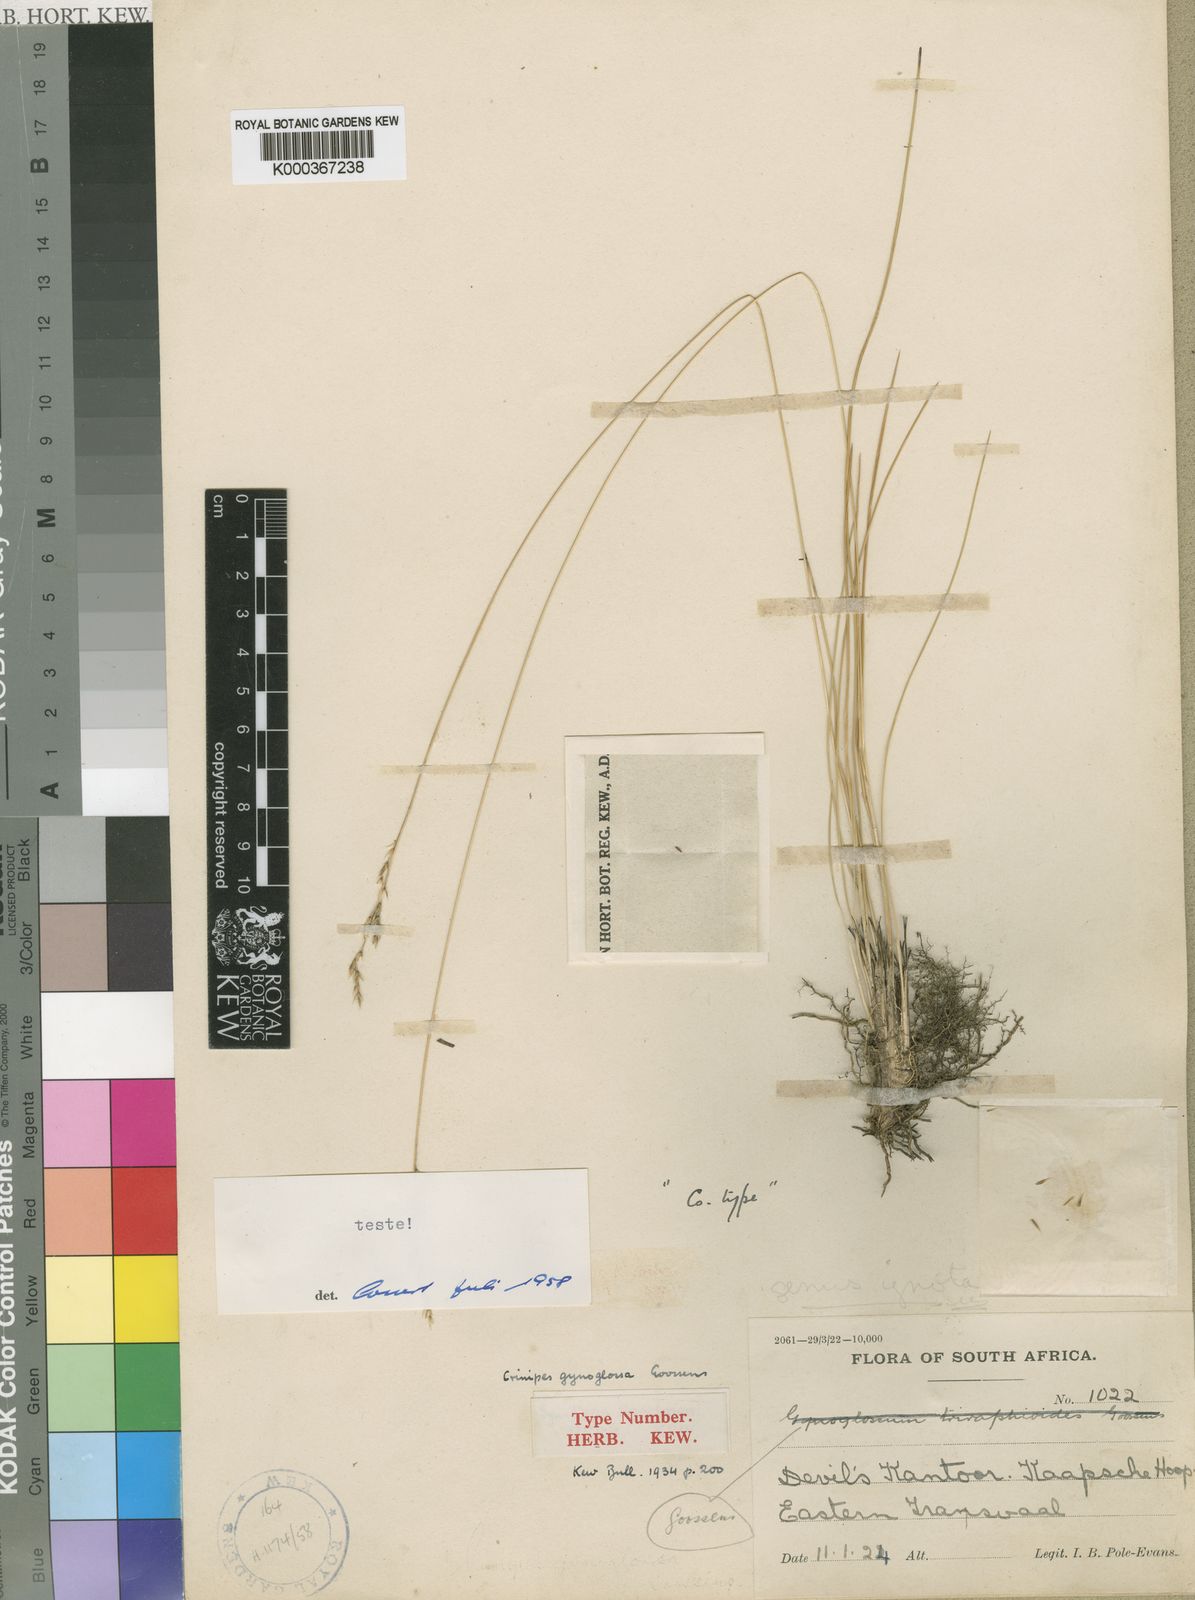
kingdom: Plantae
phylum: Tracheophyta
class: Liliopsida
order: Poales
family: Poaceae
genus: Styppeiochloa
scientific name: Styppeiochloa gynoglossa
